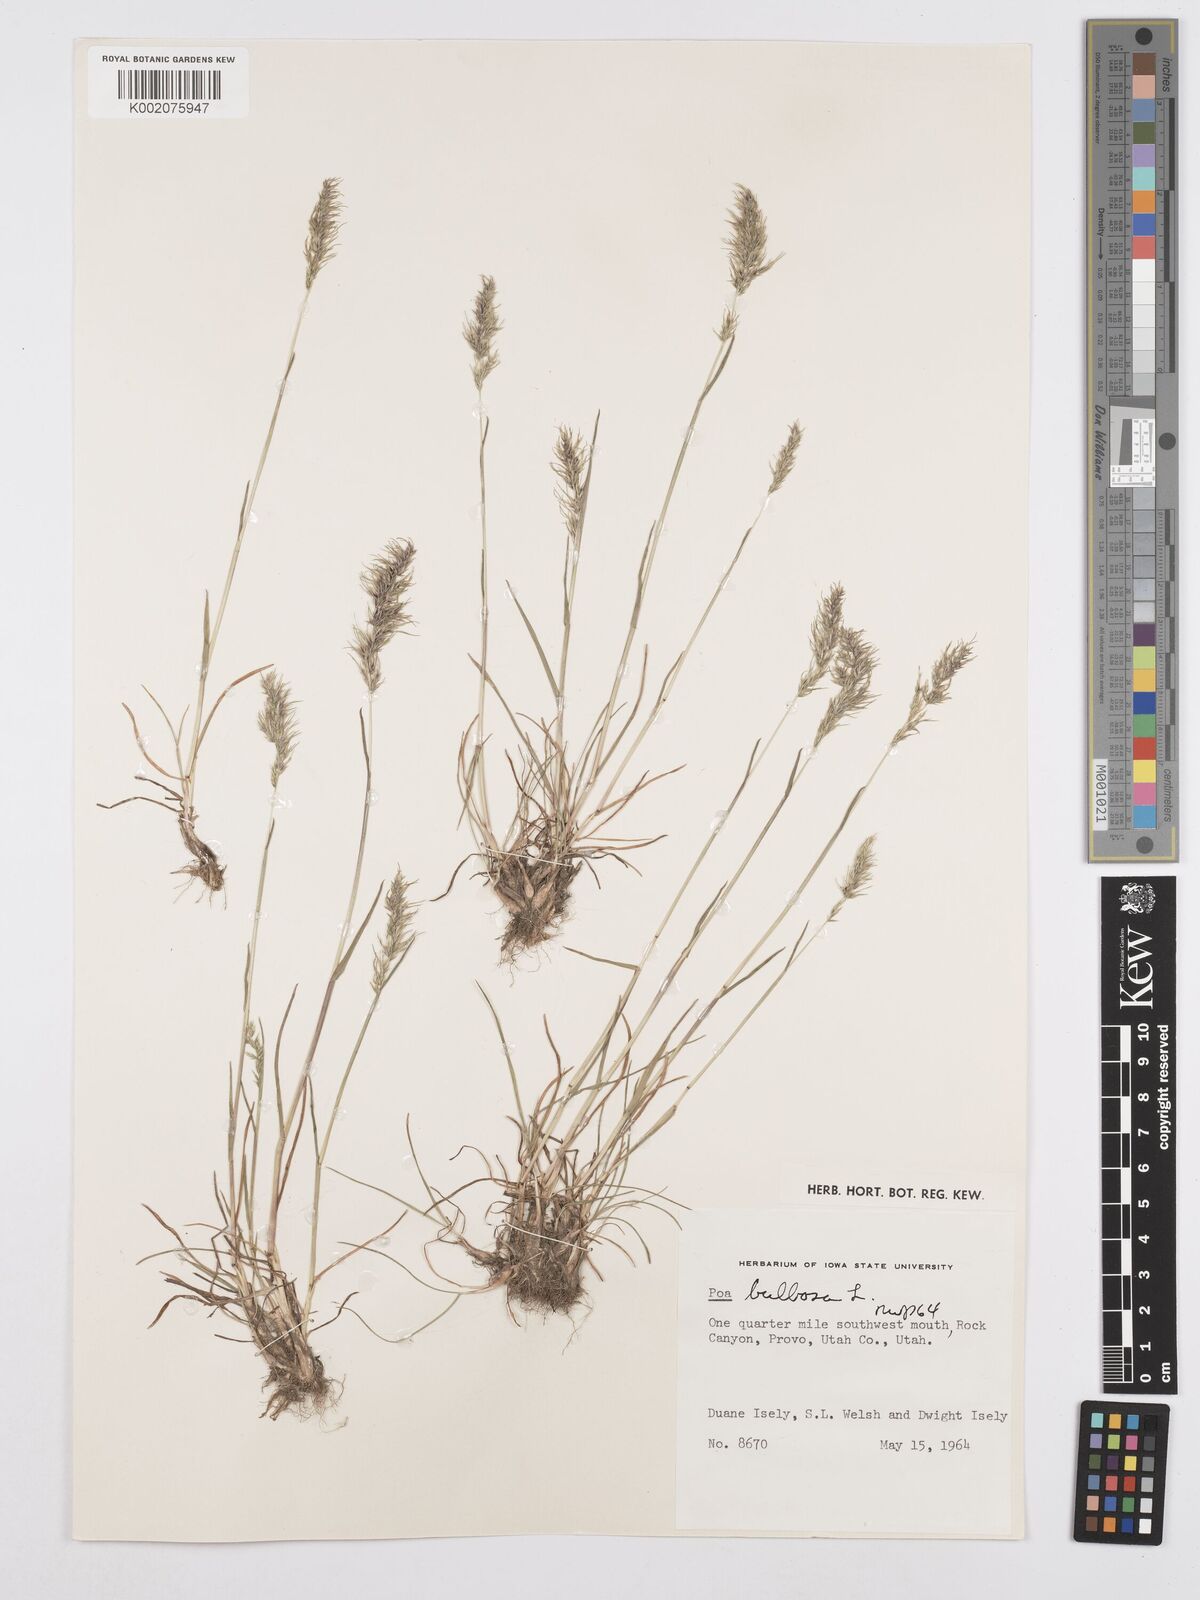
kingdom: Plantae
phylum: Tracheophyta
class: Liliopsida
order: Poales
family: Poaceae
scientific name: Poaceae
